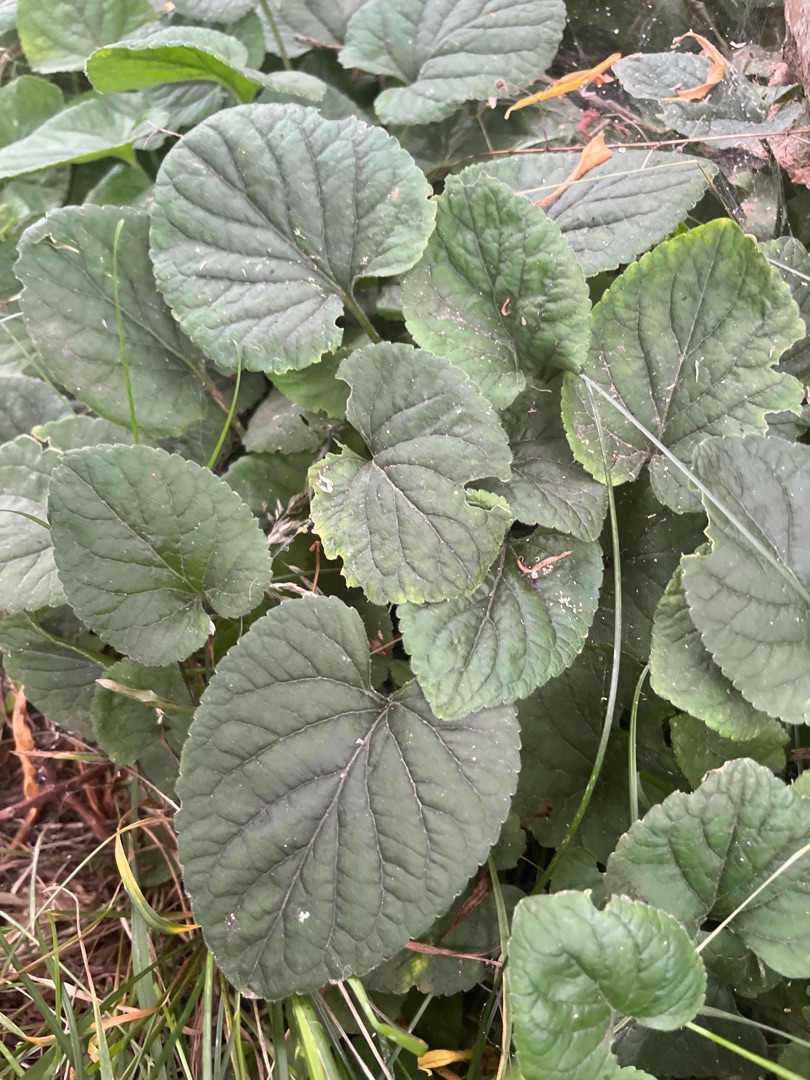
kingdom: Plantae
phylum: Tracheophyta
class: Magnoliopsida
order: Malpighiales
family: Violaceae
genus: Viola
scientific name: Viola odorata
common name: Marts-viol
